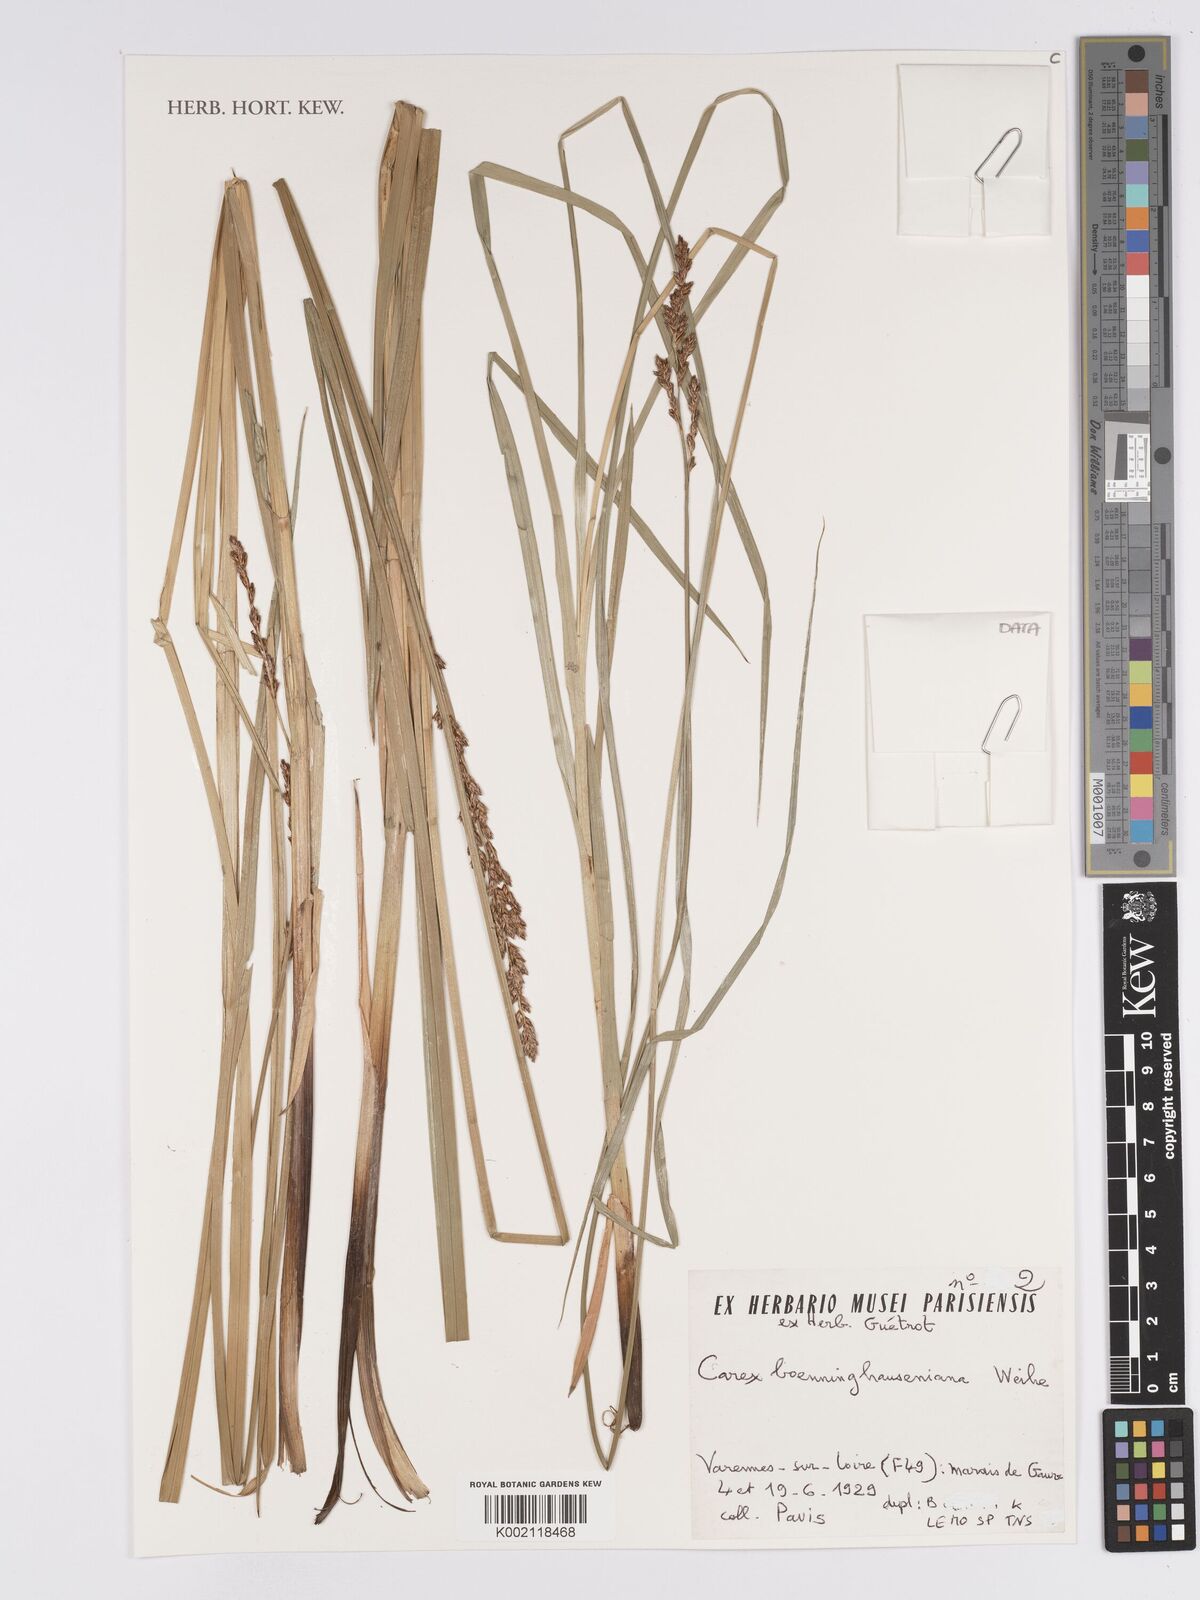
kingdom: Plantae
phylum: Tracheophyta
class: Liliopsida
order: Poales
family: Cyperaceae
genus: Carex
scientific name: Carex boenninghausiana
